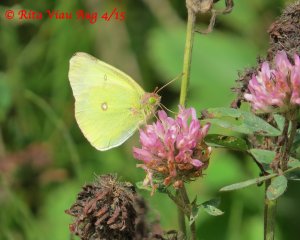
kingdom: Animalia
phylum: Arthropoda
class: Insecta
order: Lepidoptera
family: Pieridae
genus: Colias
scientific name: Colias interior
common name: Pink-edged Sulphur
